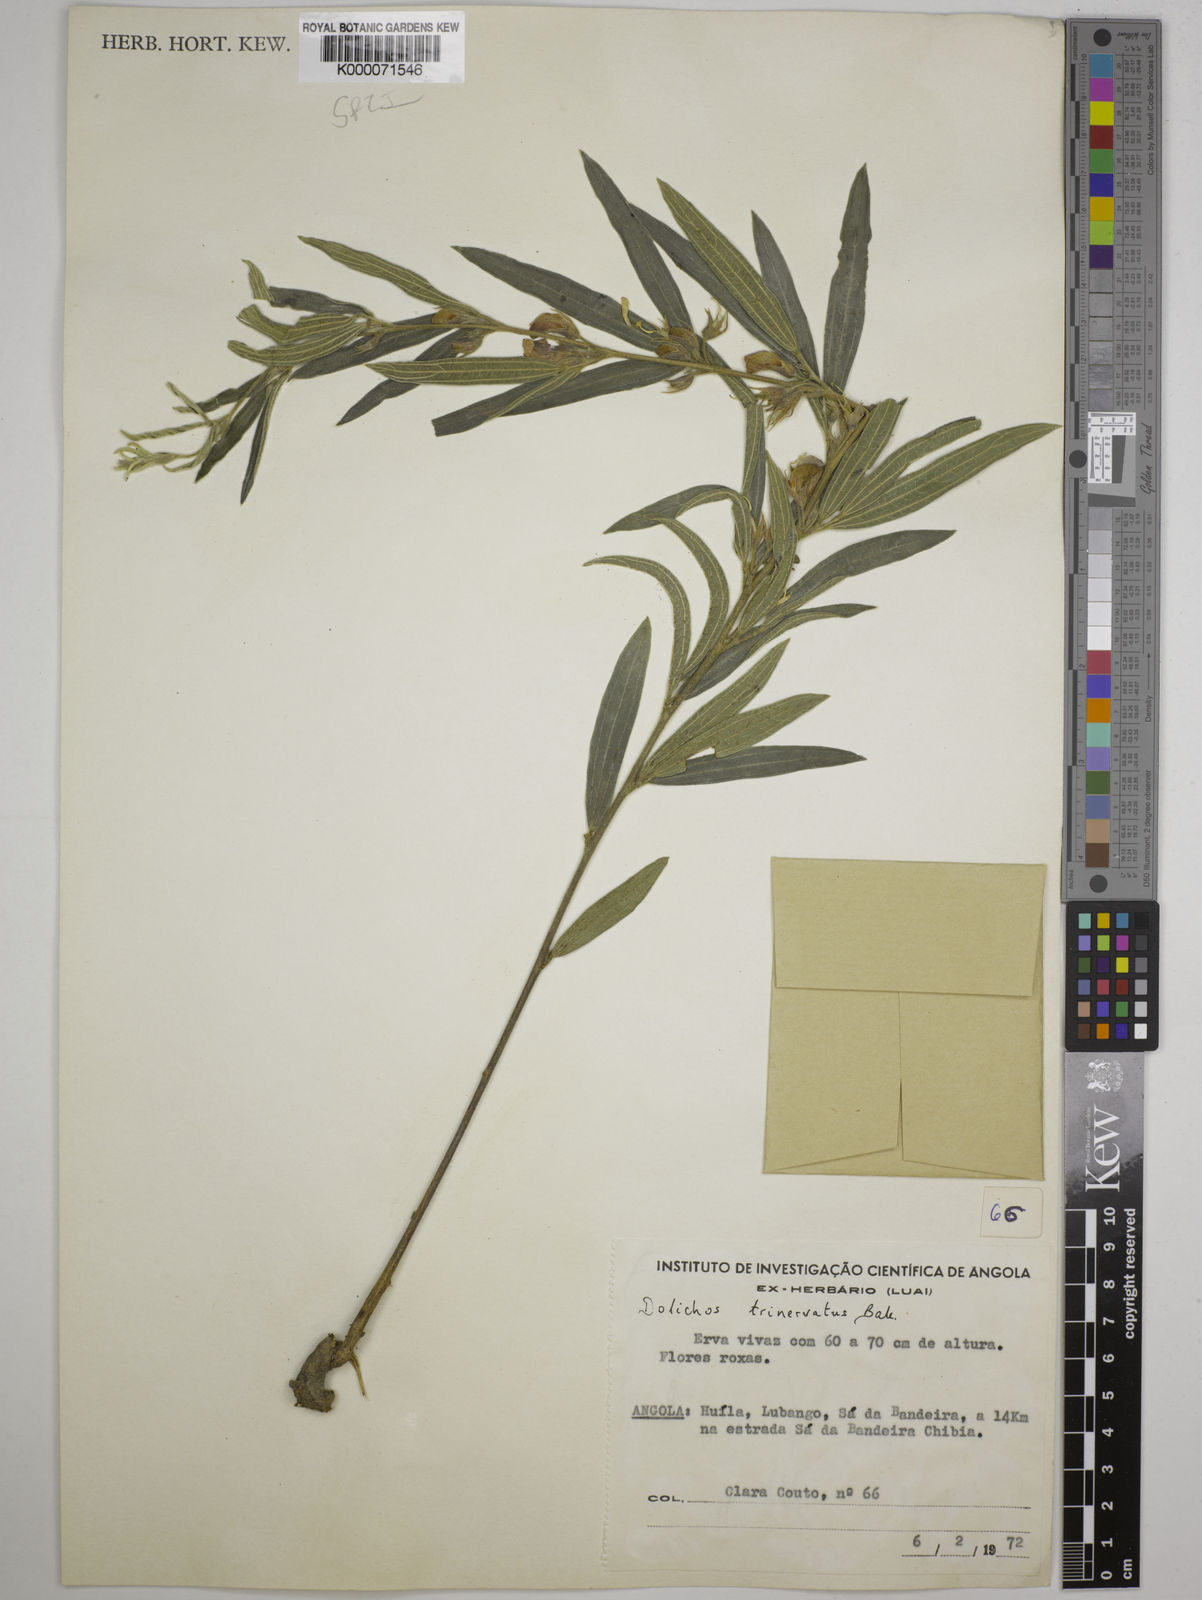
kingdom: Plantae
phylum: Tracheophyta
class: Magnoliopsida
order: Fabales
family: Fabaceae
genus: Dolichos
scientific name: Dolichos trinervatus
